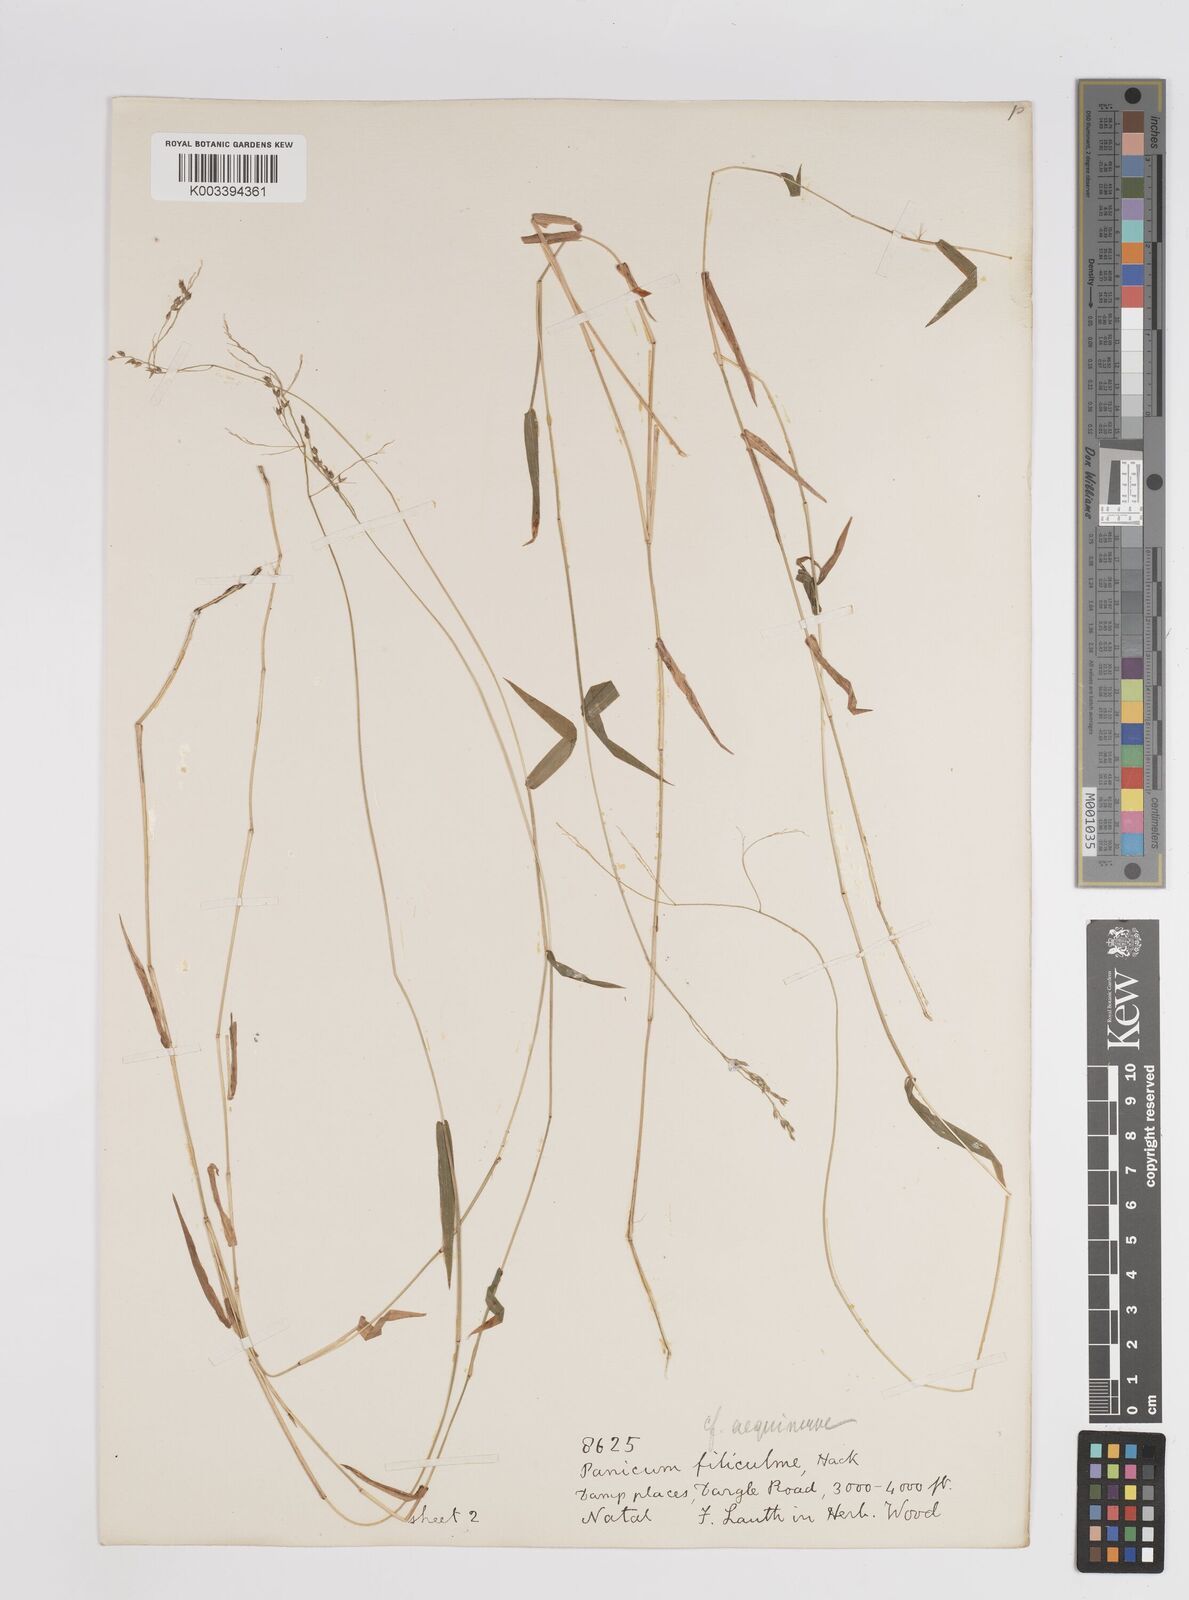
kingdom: Plantae
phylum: Tracheophyta
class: Liliopsida
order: Poales
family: Poaceae
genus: Panicum
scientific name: Panicum aequinerve
